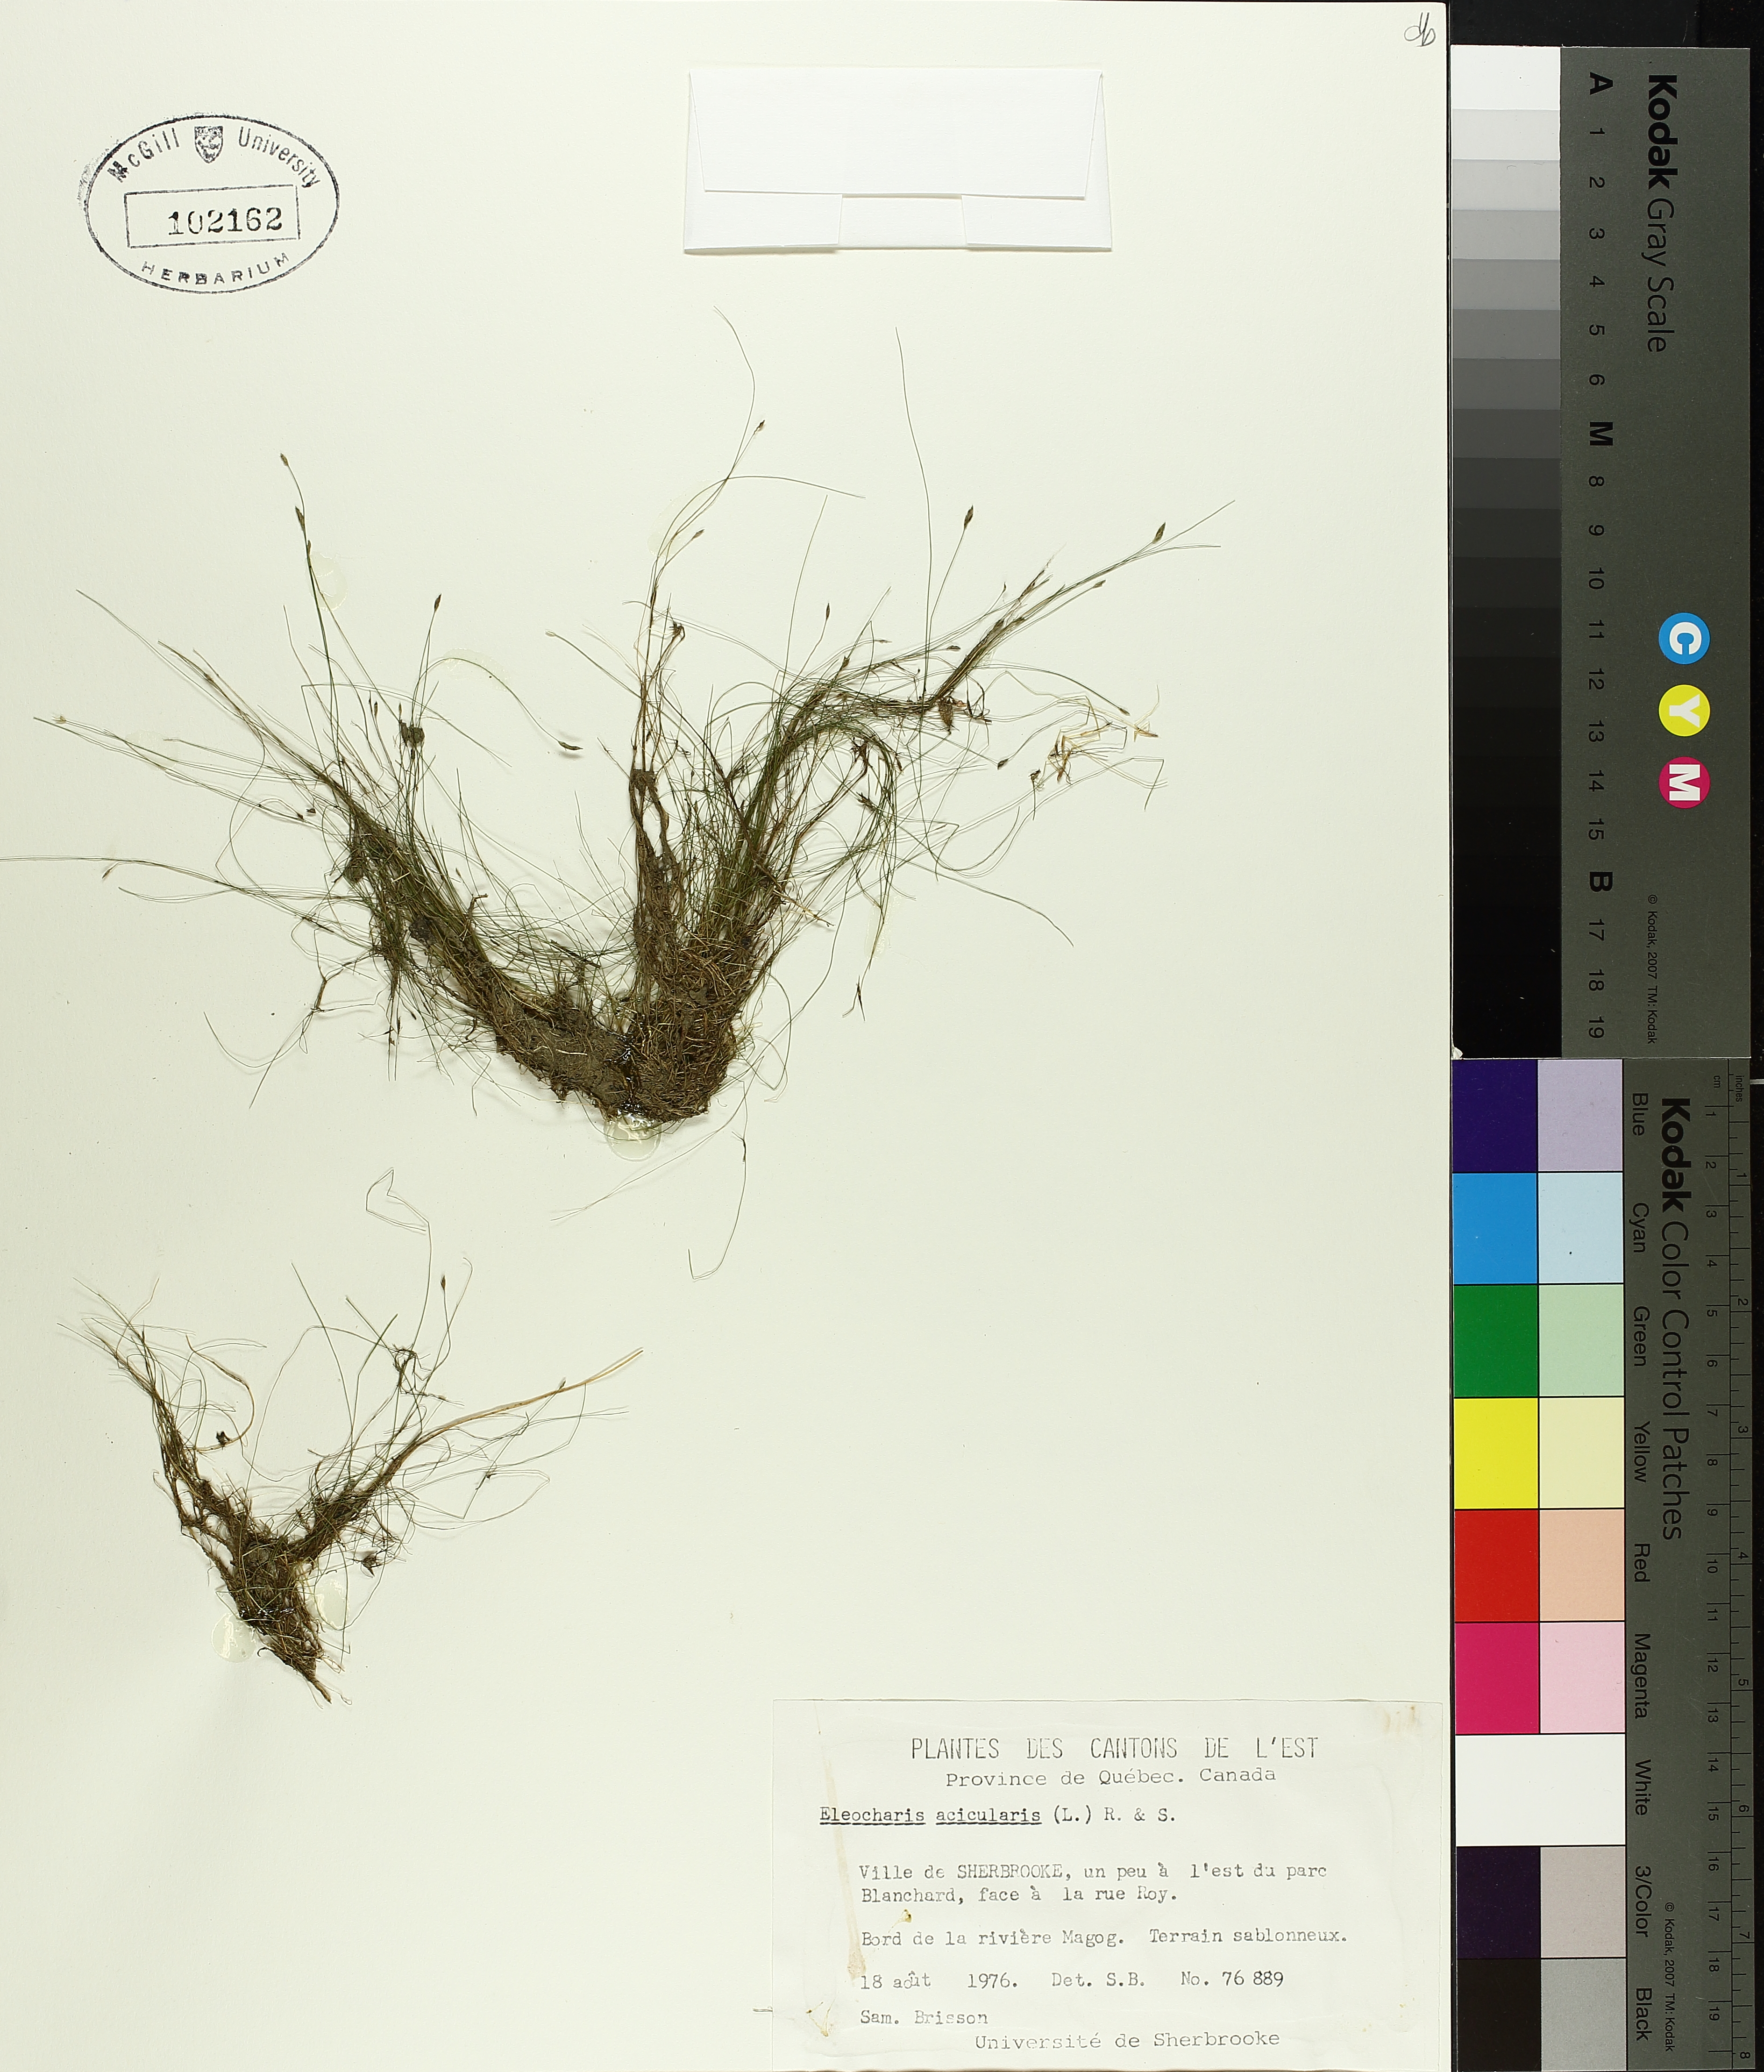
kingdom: Plantae
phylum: Tracheophyta
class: Liliopsida
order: Poales
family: Cyperaceae
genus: Eleocharis
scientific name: Eleocharis acicularis
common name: Needle spike-rush
